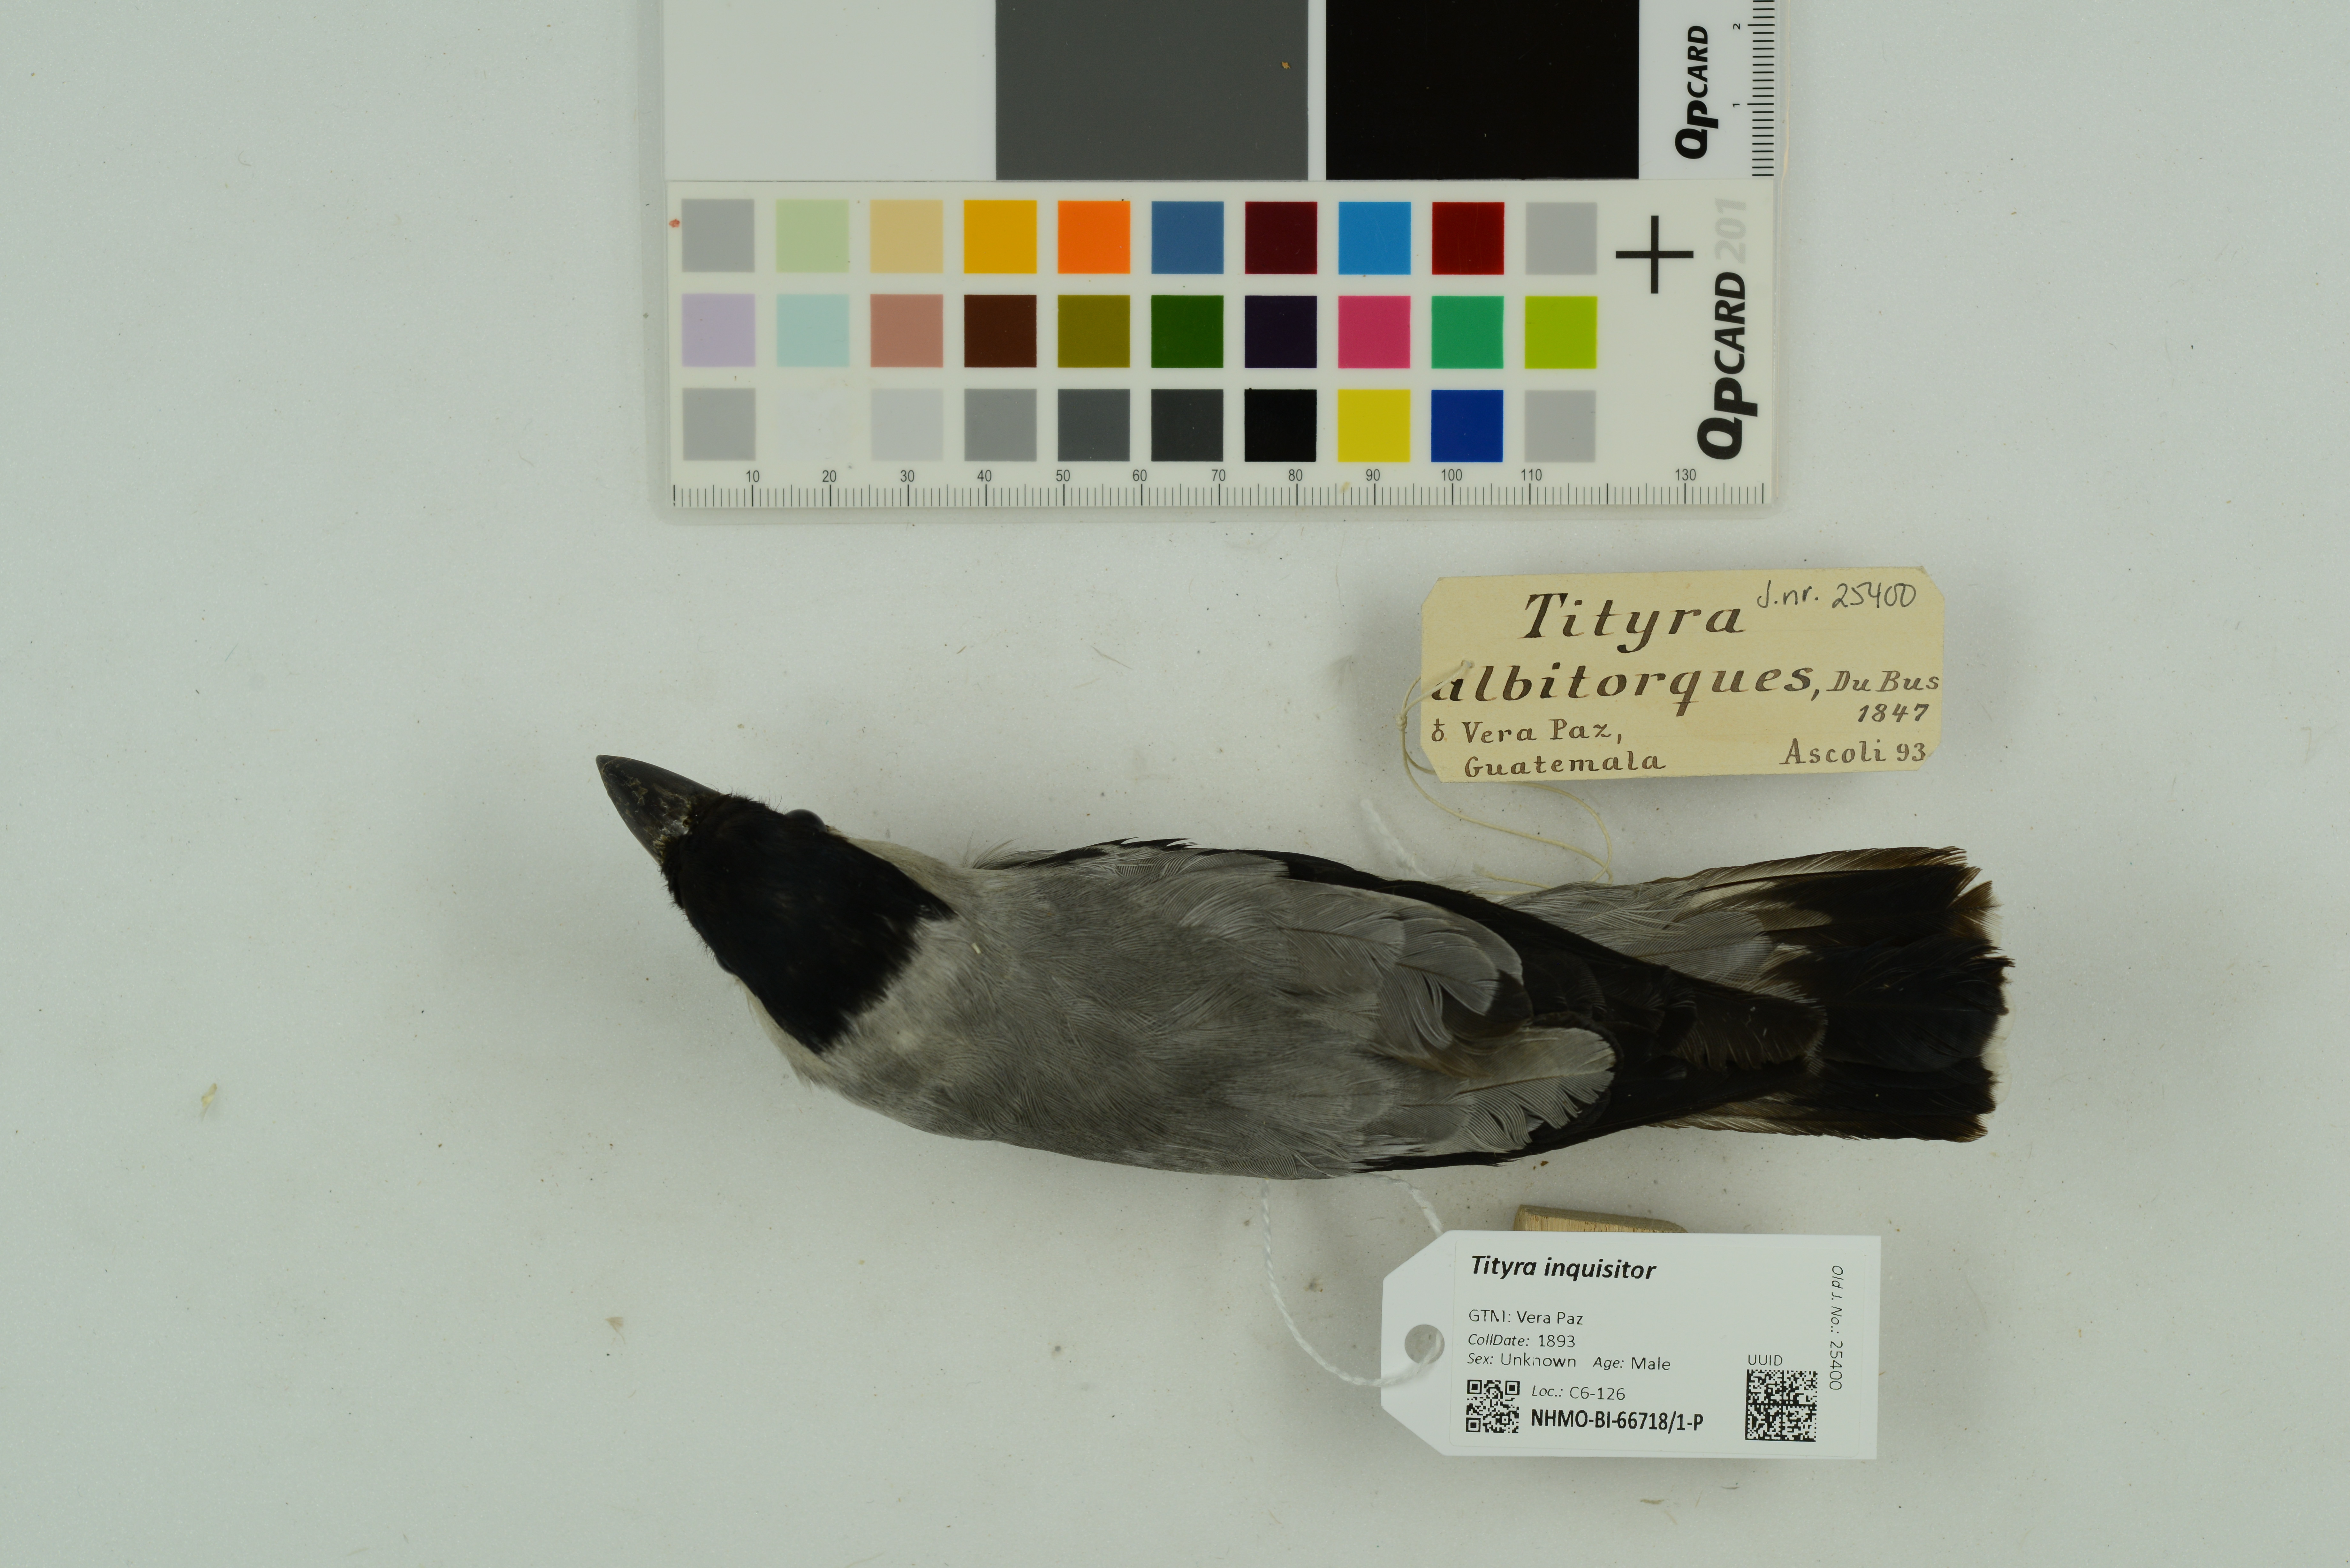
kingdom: Animalia
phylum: Chordata
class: Aves
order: Passeriformes
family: Cotingidae
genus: Tityra
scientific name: Tityra inquisitor
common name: Black-crowned tityra
